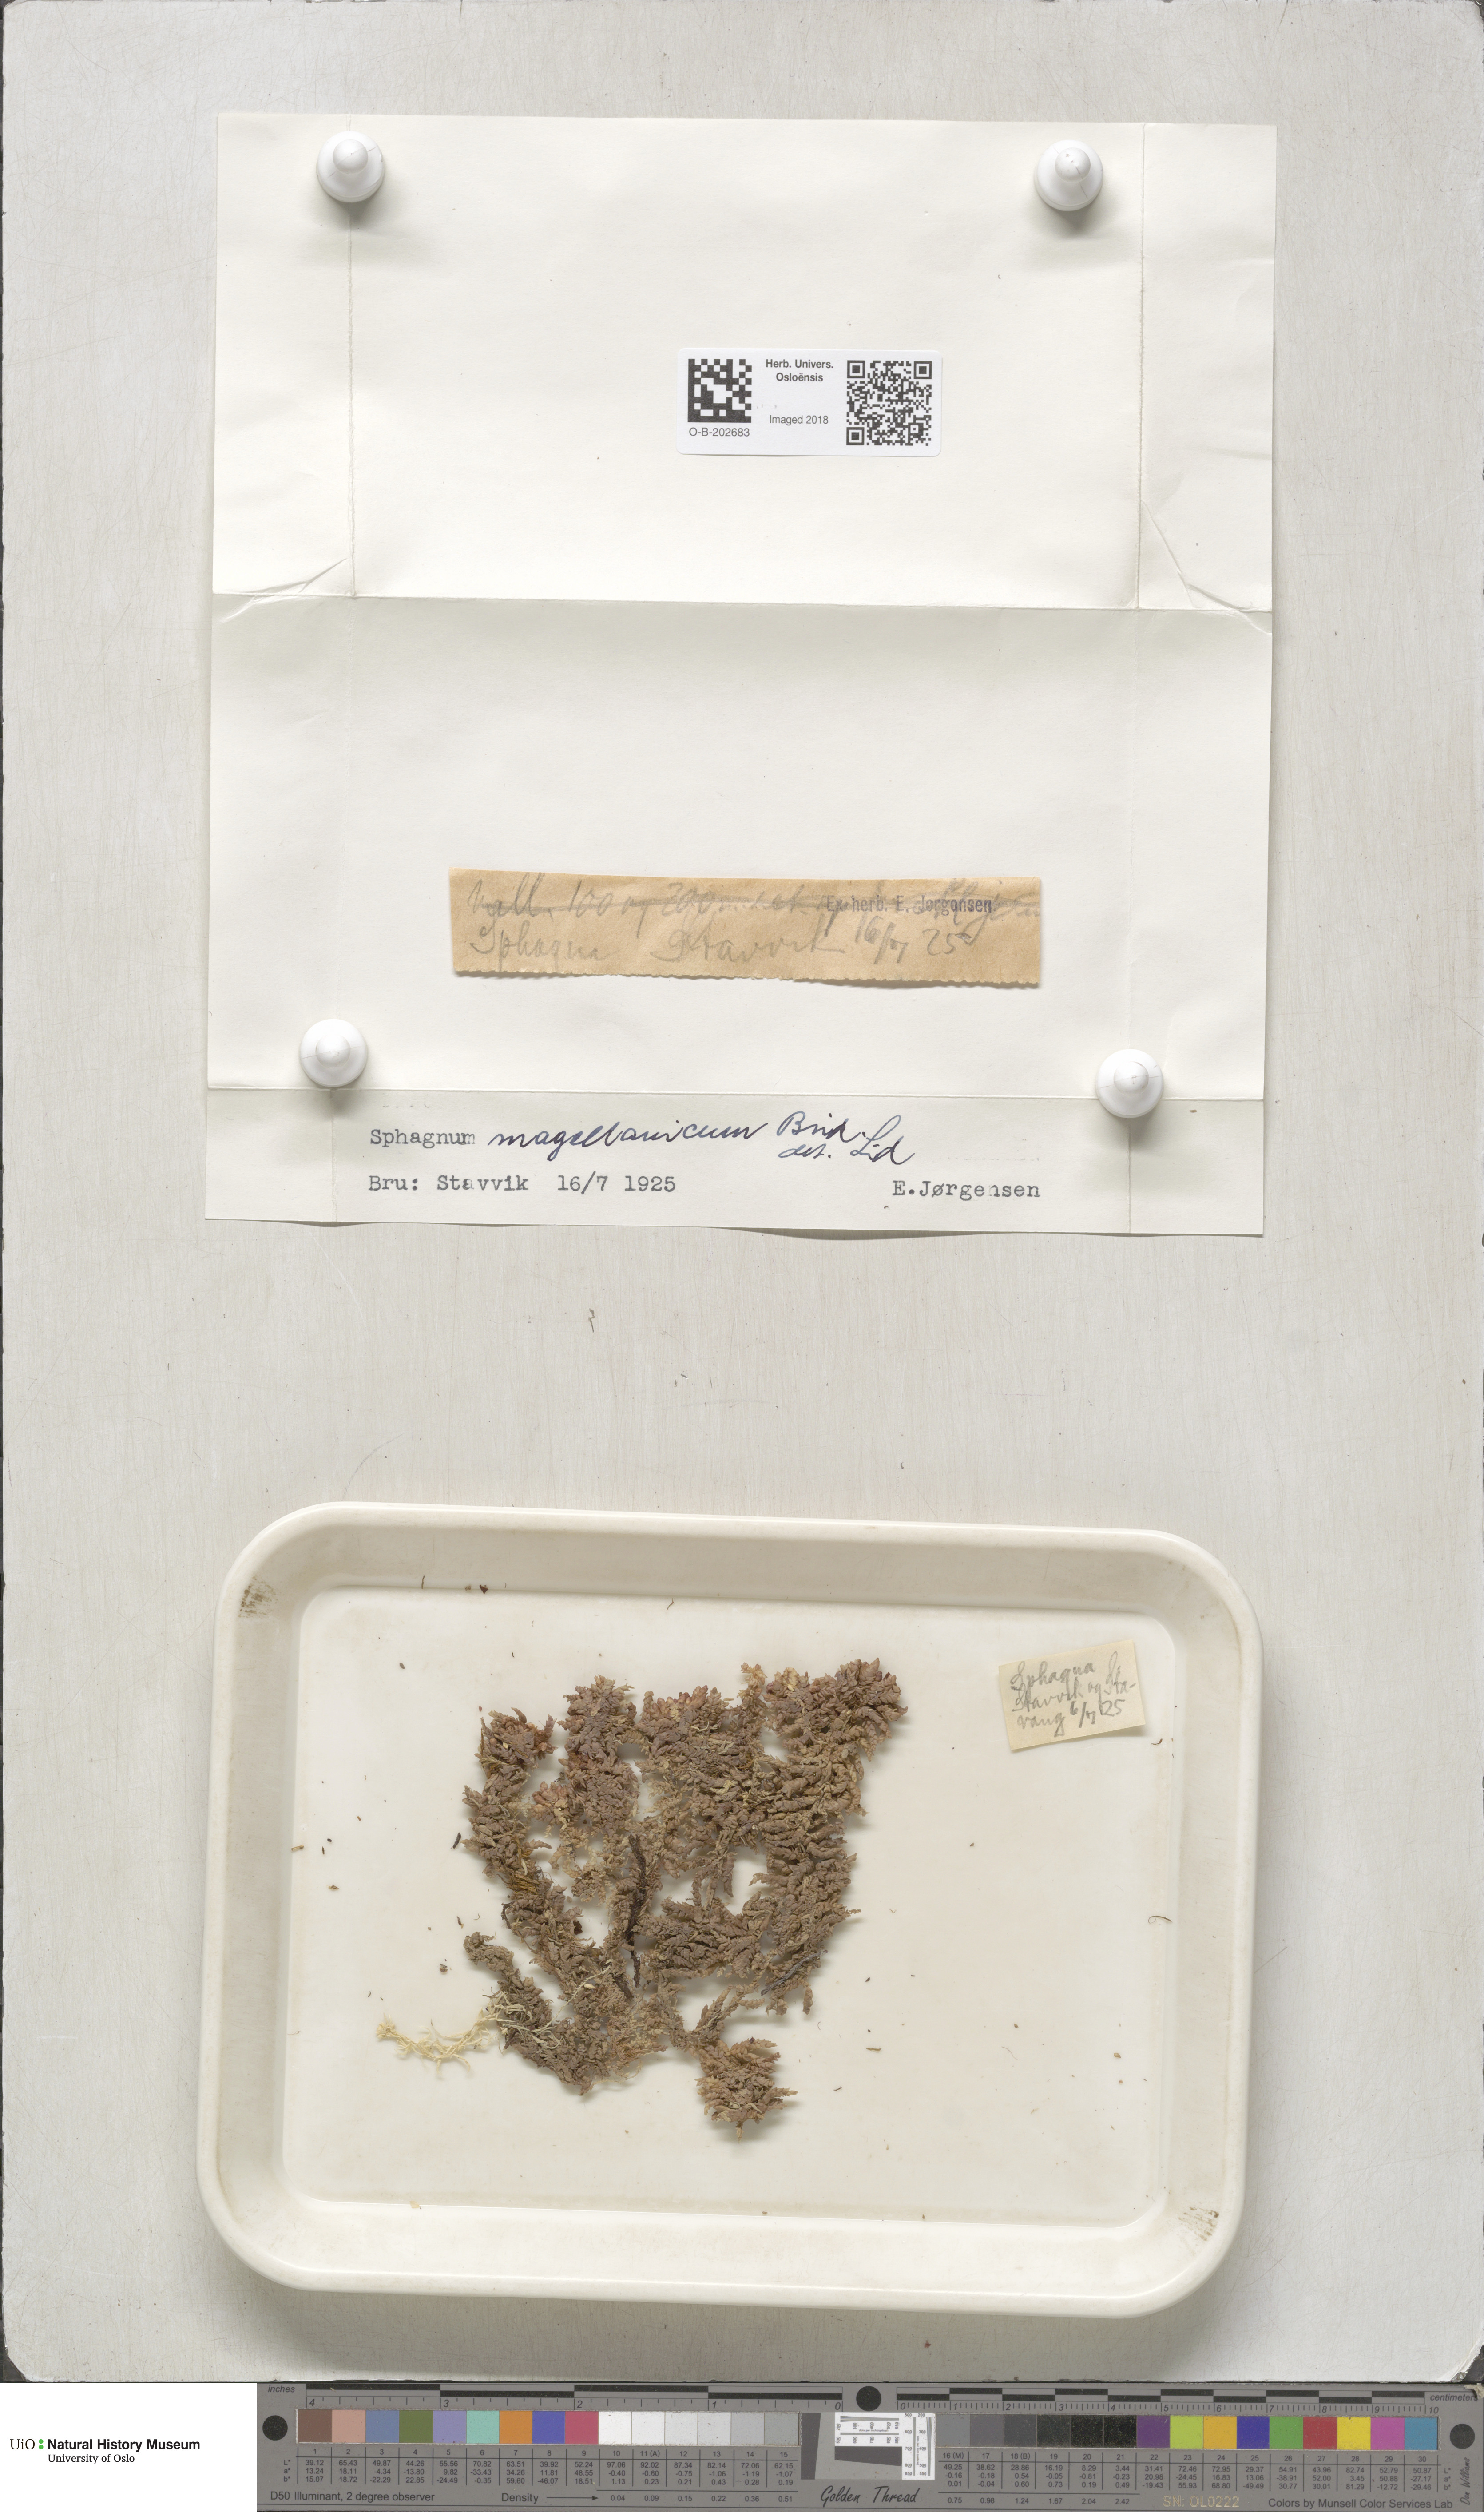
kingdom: Plantae
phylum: Bryophyta
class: Sphagnopsida
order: Sphagnales
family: Sphagnaceae
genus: Sphagnum
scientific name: Sphagnum magellanicum
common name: Magellan's peat moss
